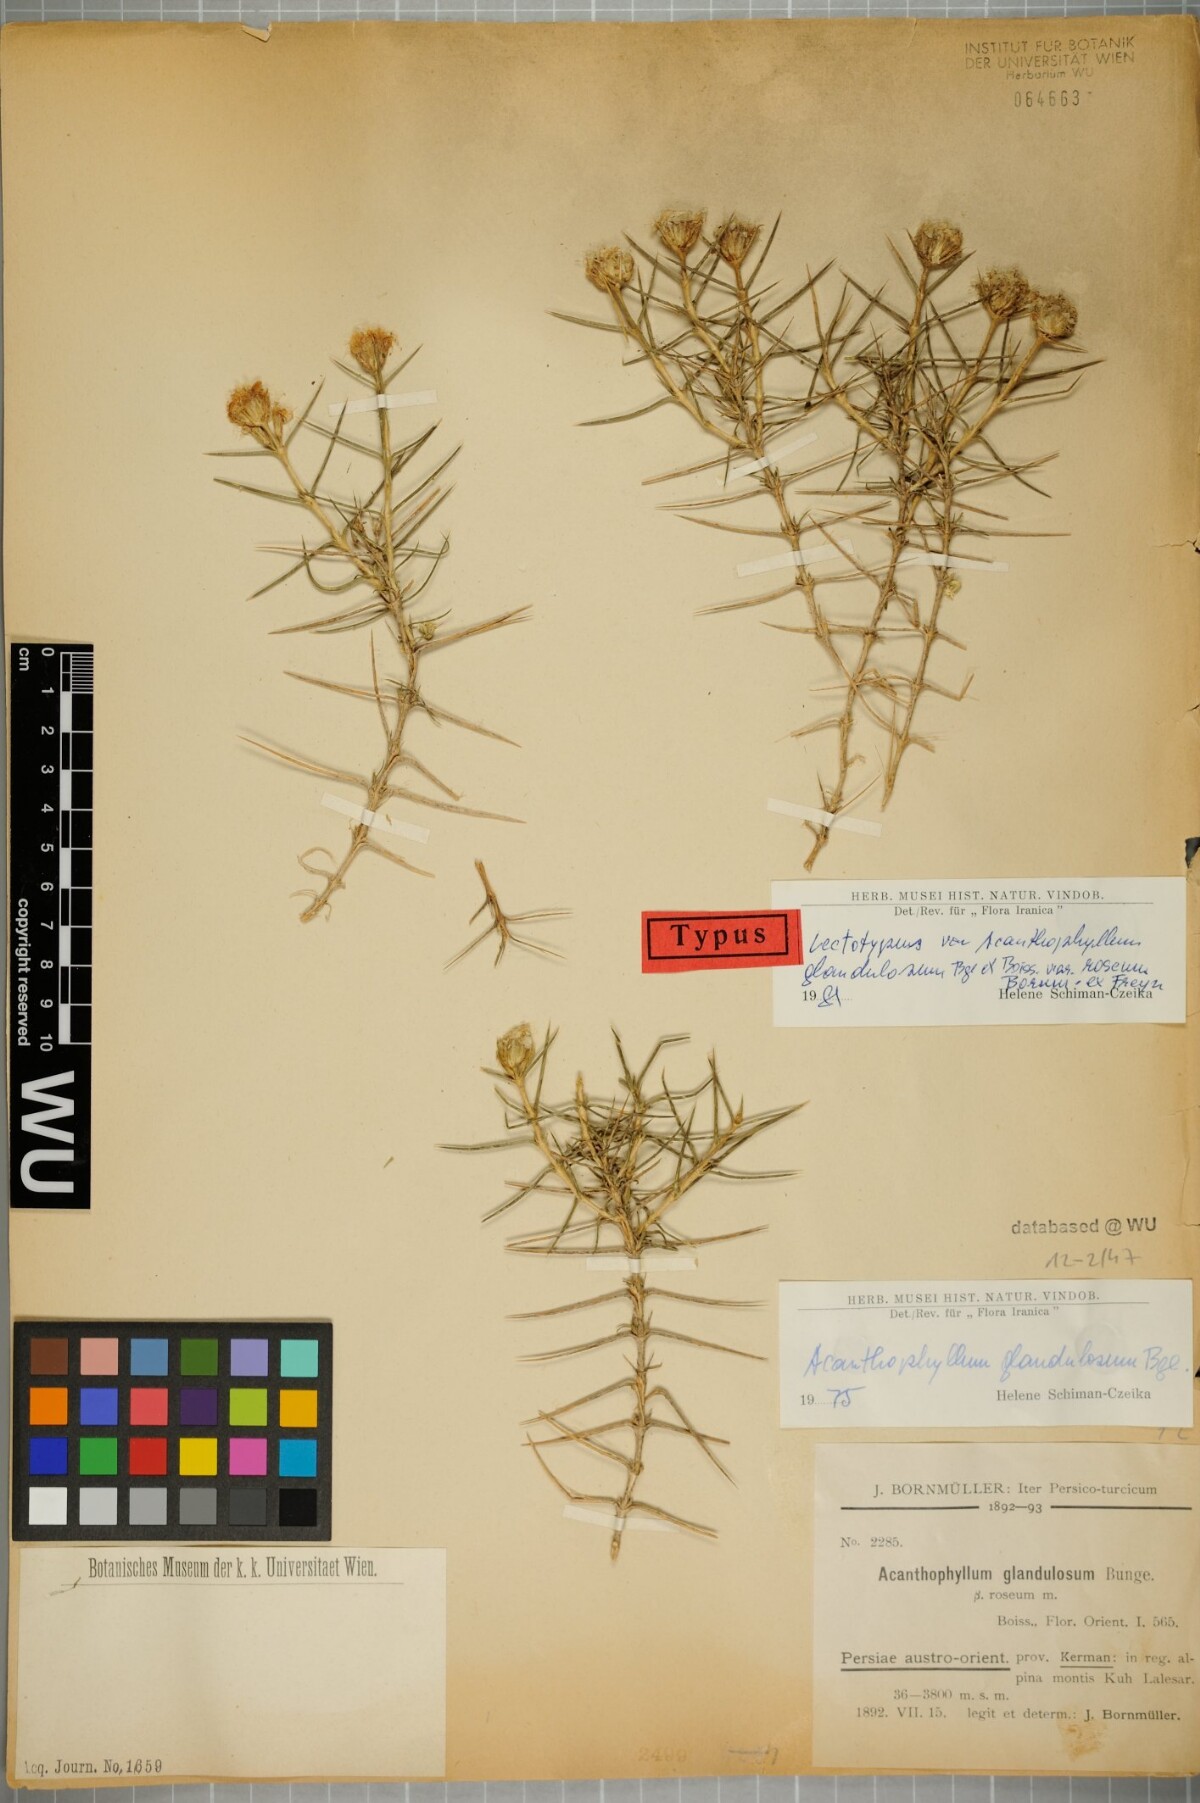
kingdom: Plantae
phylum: Tracheophyta
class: Magnoliopsida
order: Caryophyllales
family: Caryophyllaceae
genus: Acanthophyllum
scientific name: Acanthophyllum glandulosum
